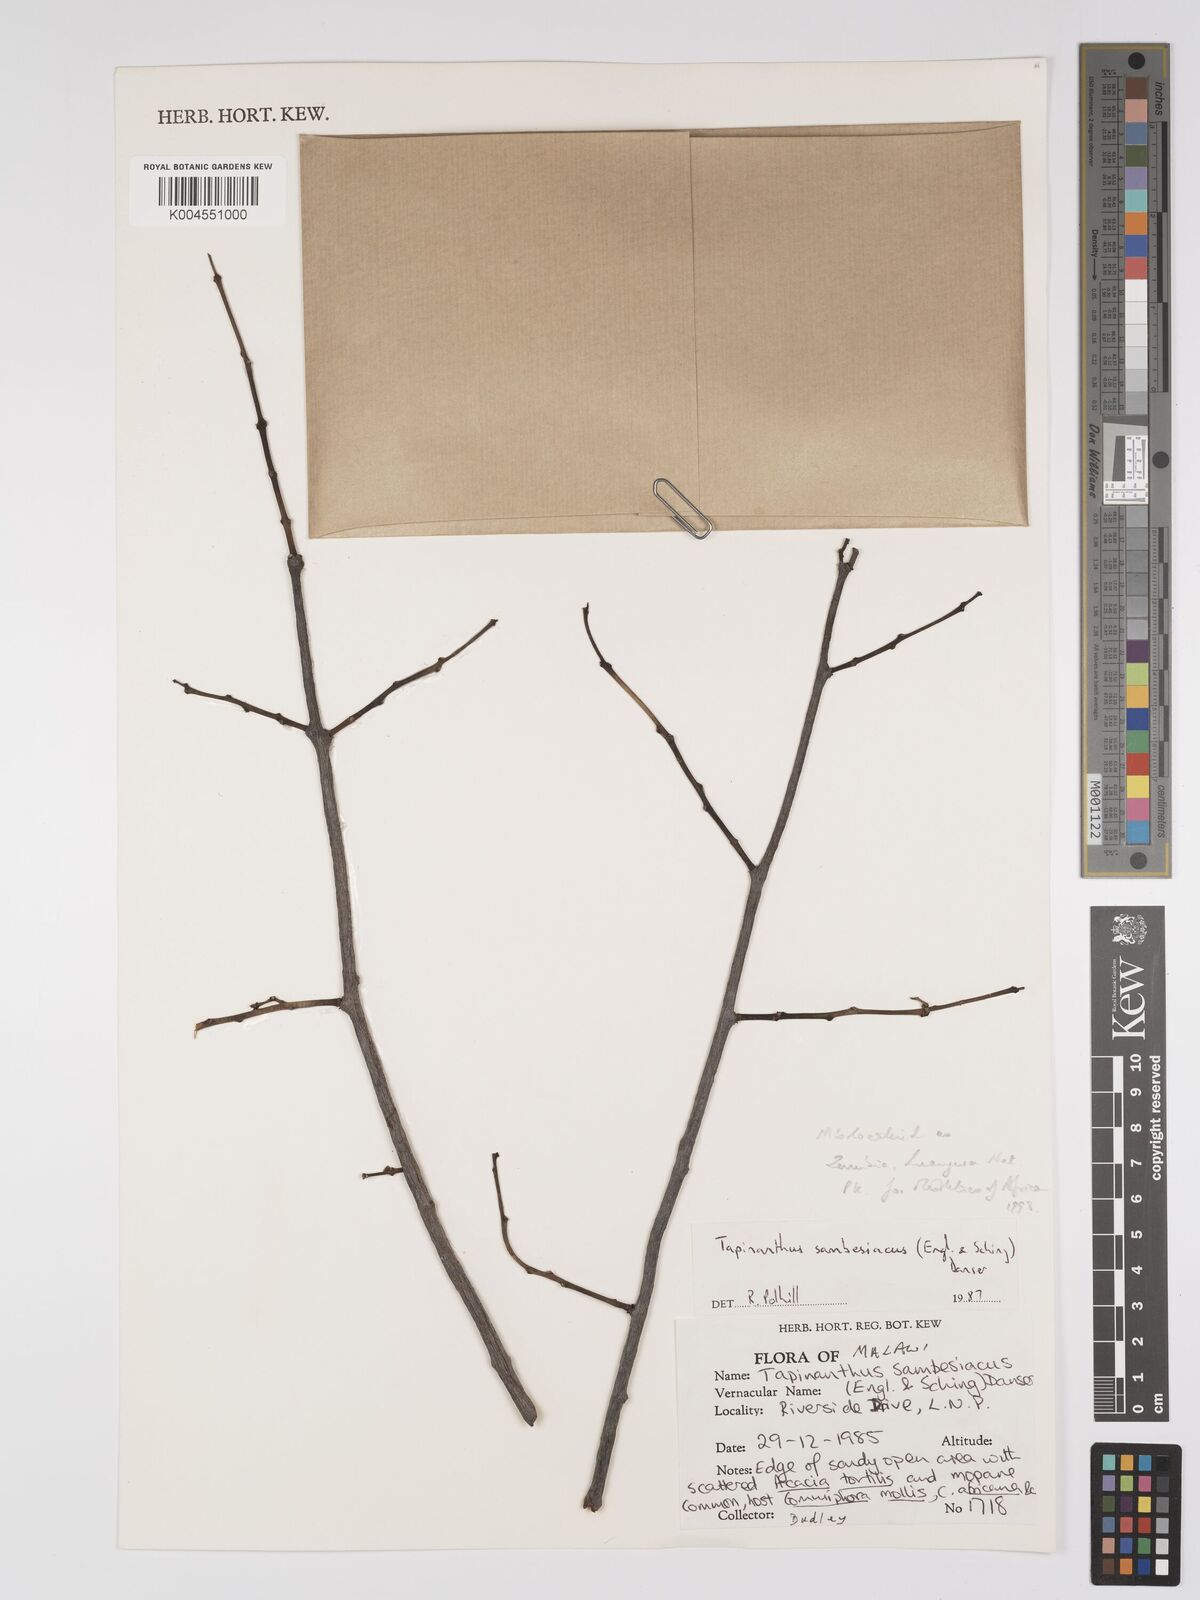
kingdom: Plantae
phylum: Tracheophyta
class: Magnoliopsida
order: Santalales
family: Loranthaceae
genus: Agelanthus
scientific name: Agelanthus sambesiacus
